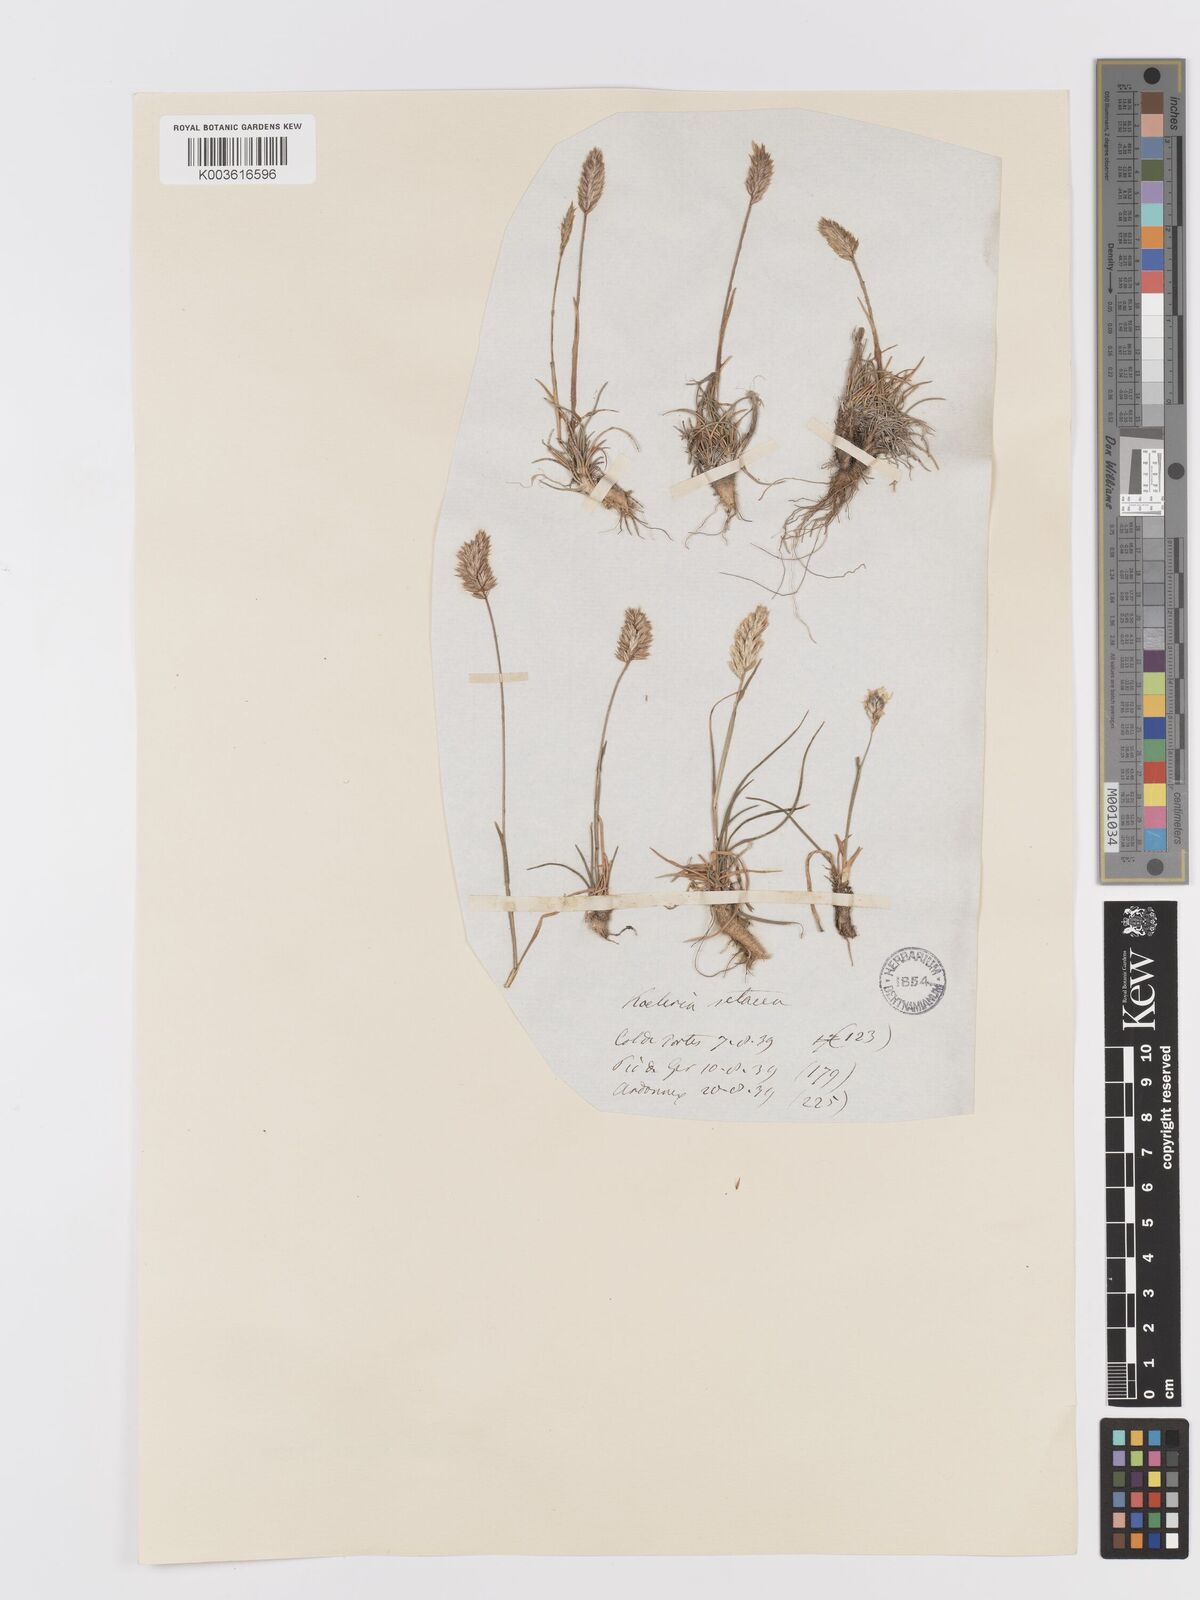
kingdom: Plantae
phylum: Tracheophyta
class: Liliopsida
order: Poales
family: Poaceae
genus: Koeleria
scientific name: Koeleria vallesiana
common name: Somerset hair-grass
